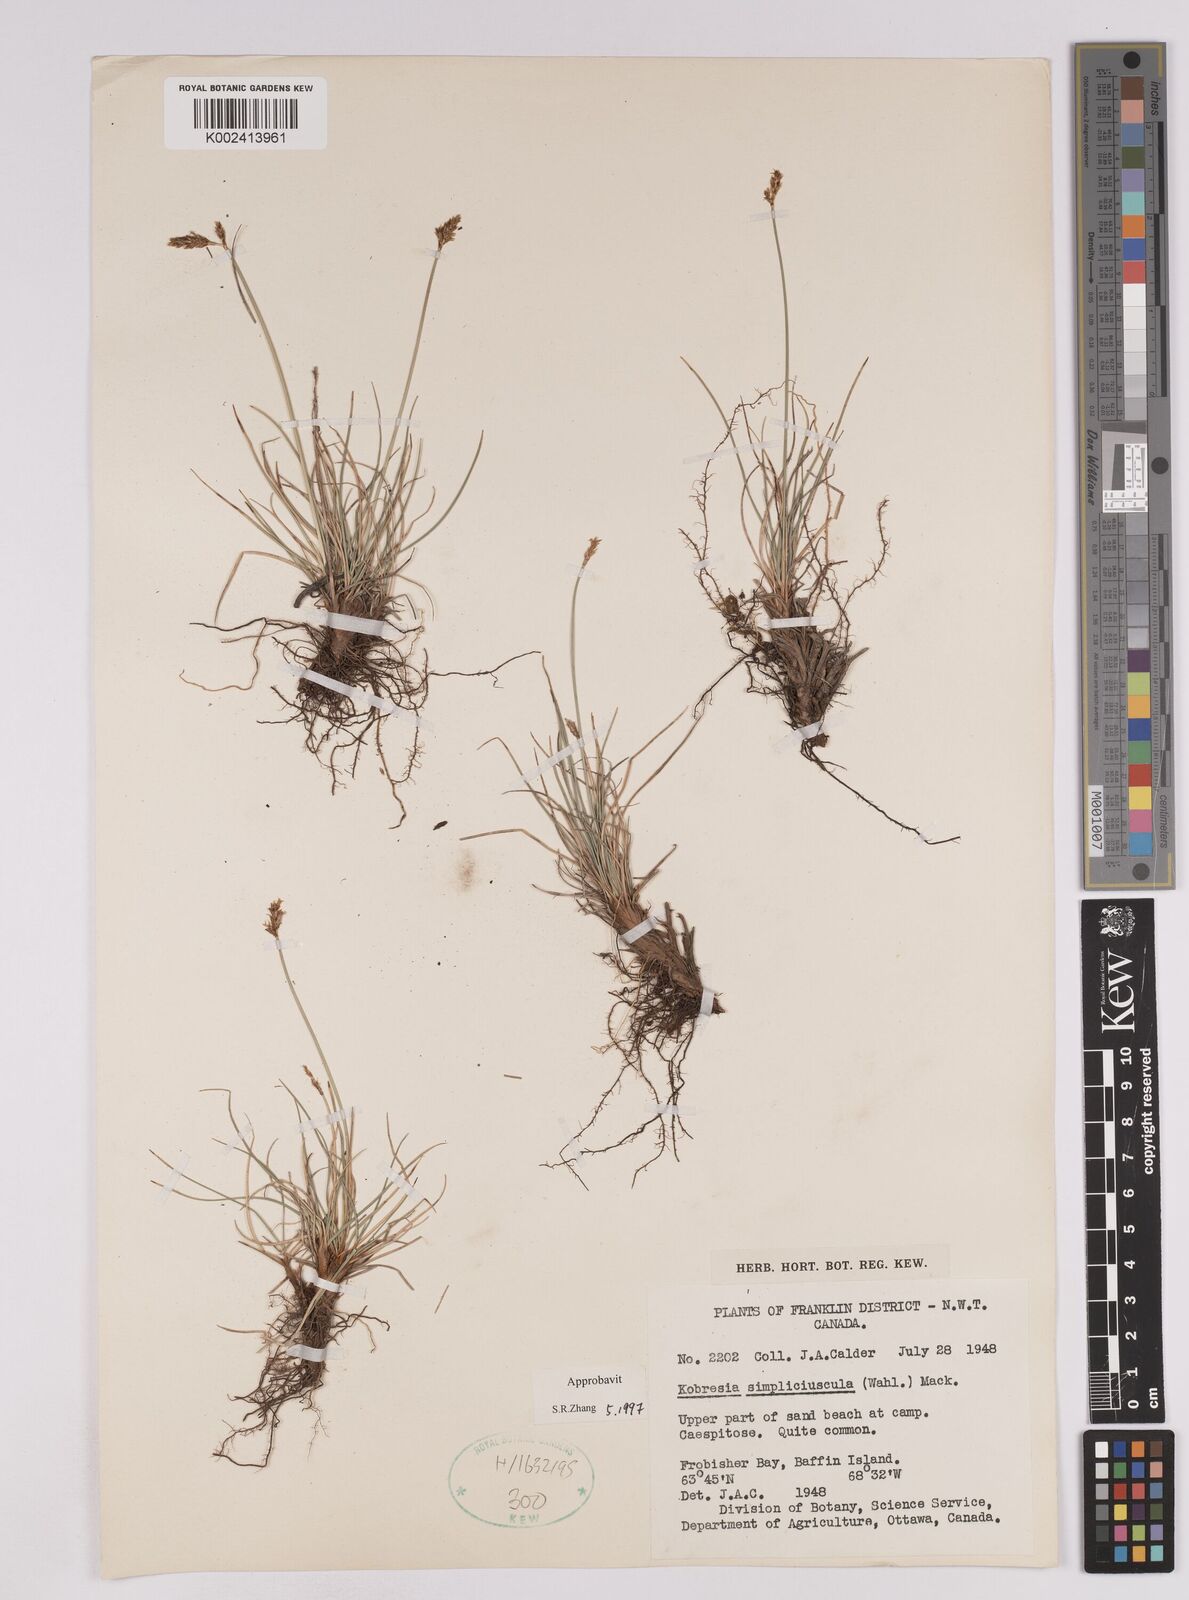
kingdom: Plantae
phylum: Tracheophyta
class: Liliopsida
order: Poales
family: Cyperaceae
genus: Carex
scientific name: Carex simpliciuscula
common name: Simple bog sedge
